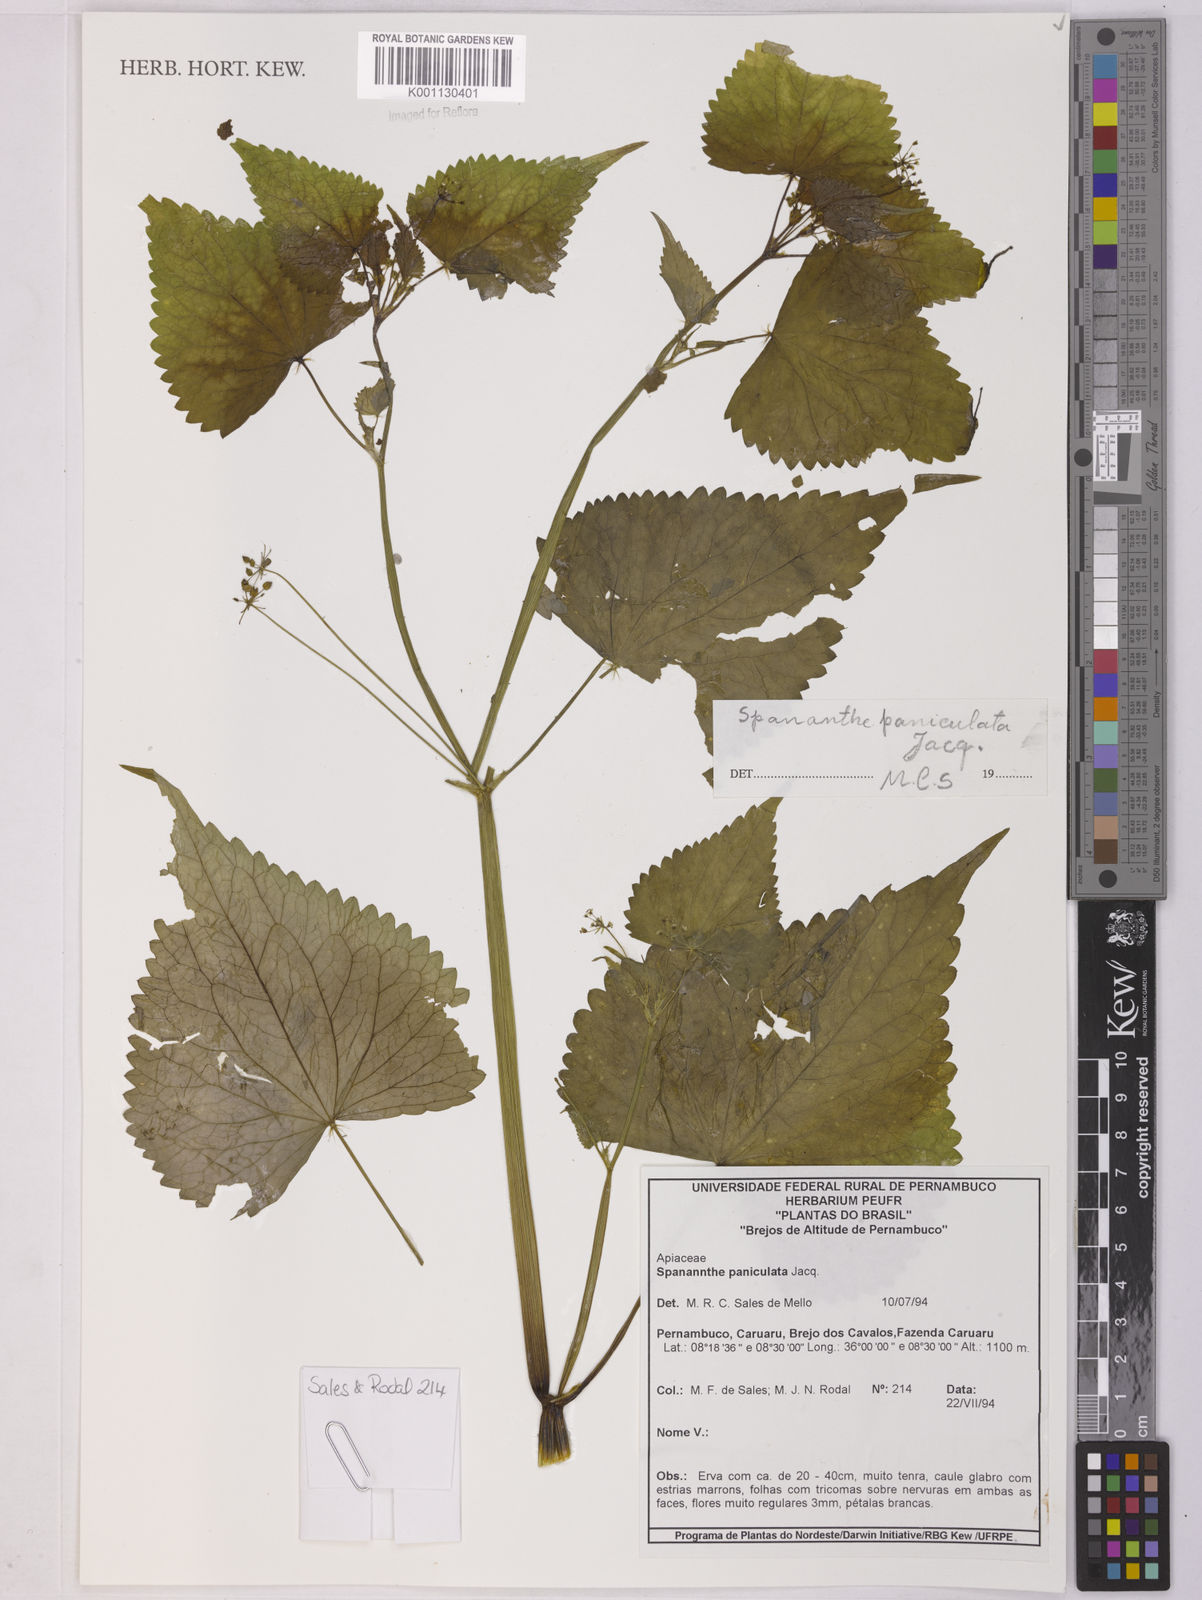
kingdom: Plantae
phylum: Tracheophyta
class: Magnoliopsida
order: Apiales
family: Apiaceae
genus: Spananthe
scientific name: Spananthe paniculata
